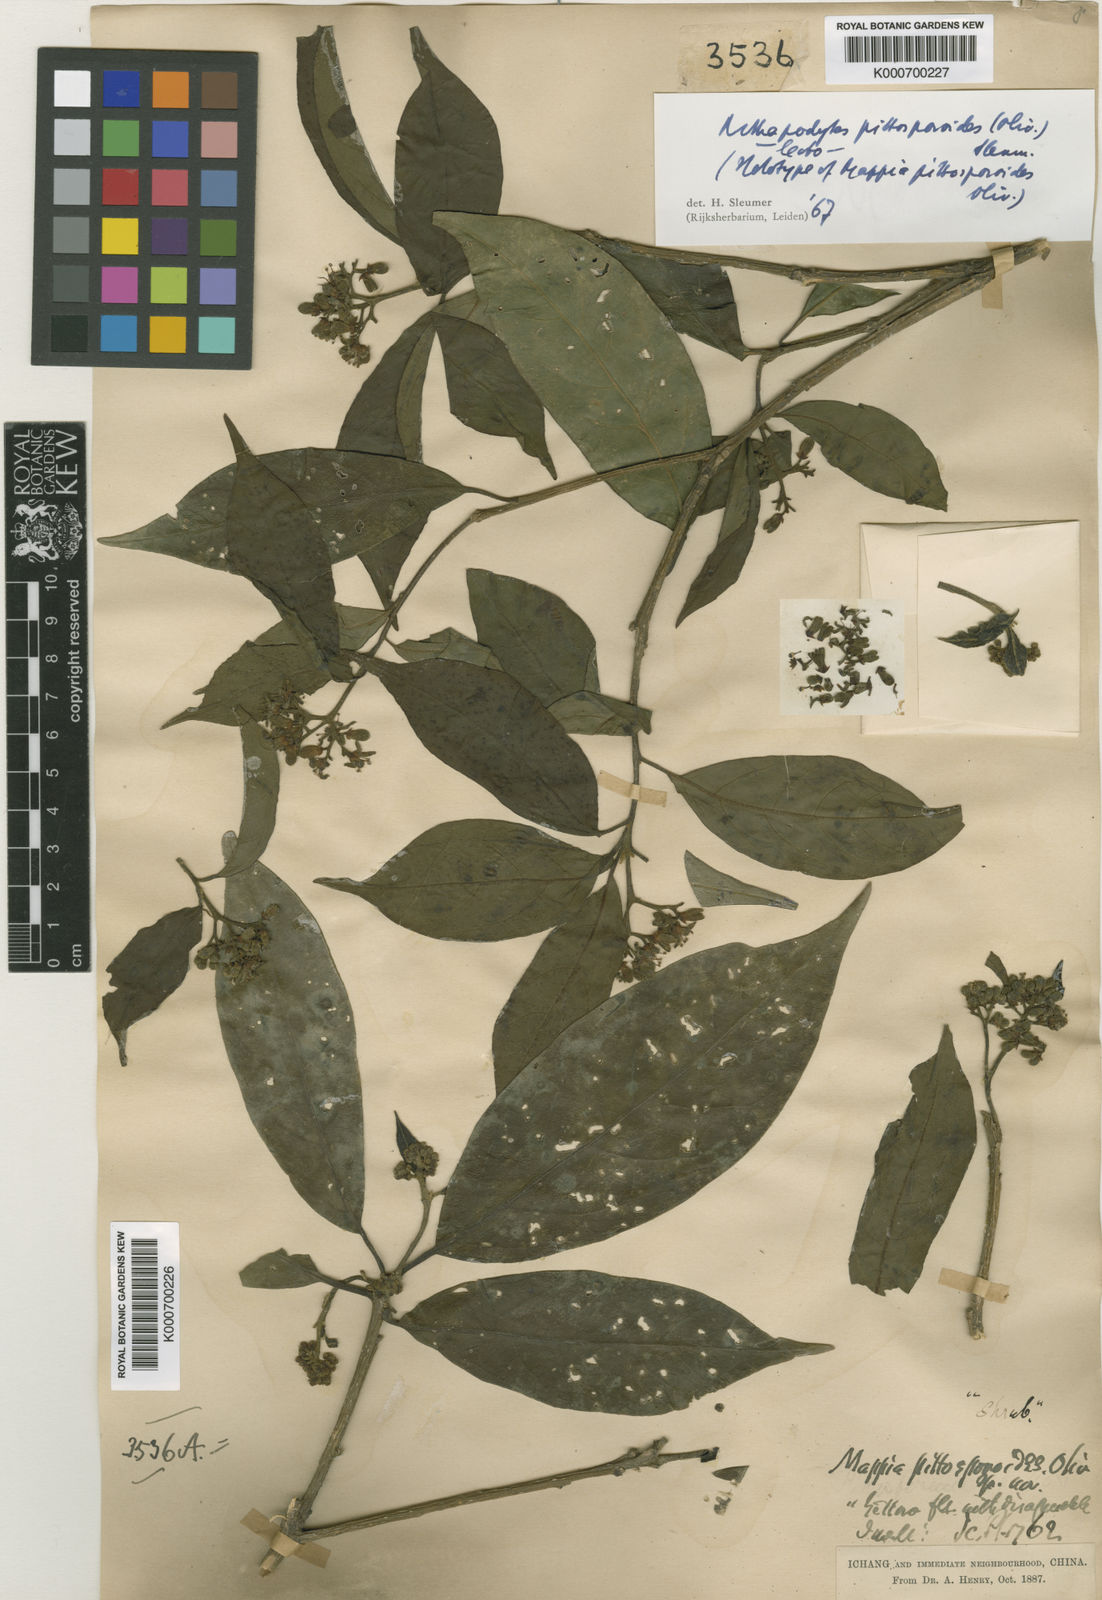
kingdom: Plantae
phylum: Tracheophyta
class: Magnoliopsida
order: Icacinales
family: Icacinaceae
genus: Nothapodytes
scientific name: Nothapodytes pittosporoides
